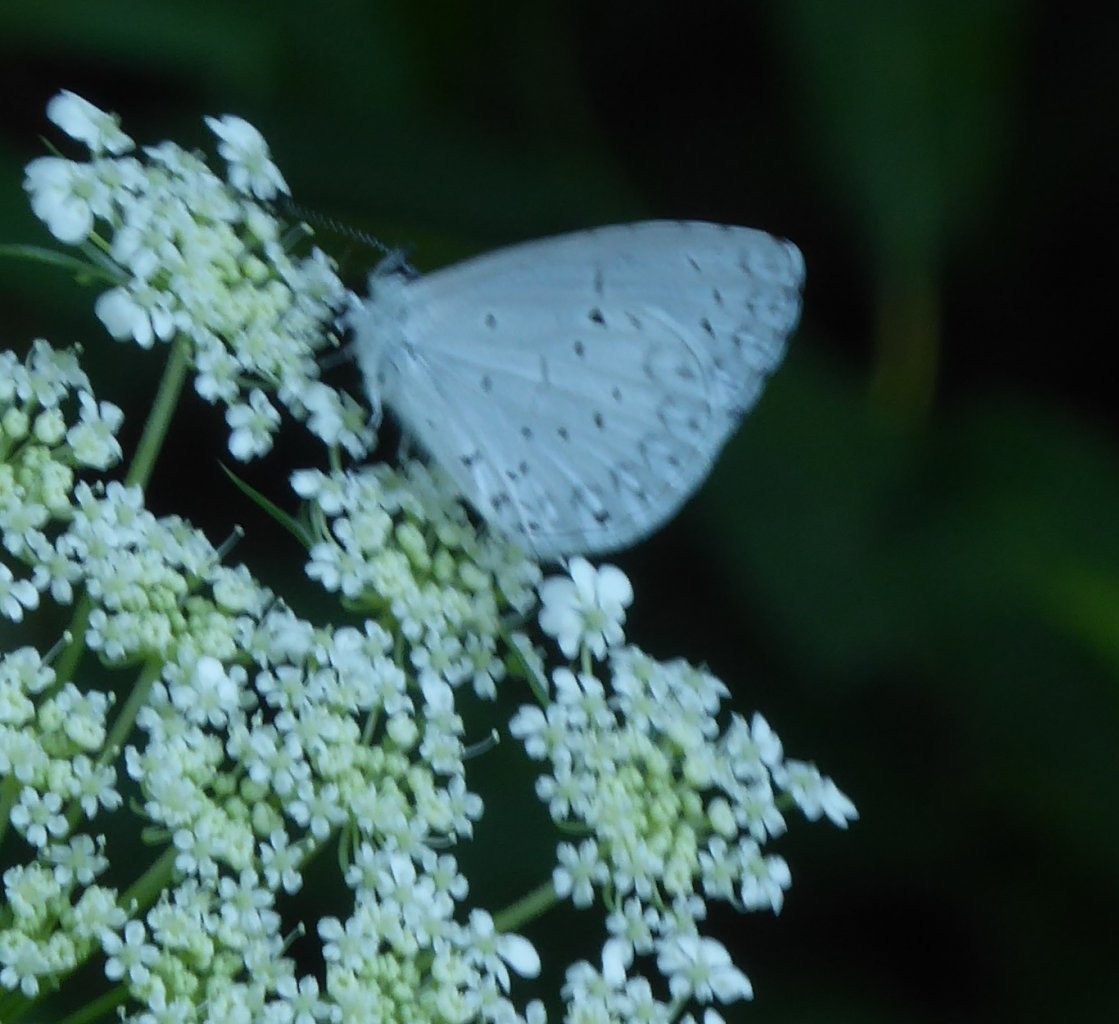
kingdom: Animalia
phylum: Arthropoda
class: Insecta
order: Lepidoptera
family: Lycaenidae
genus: Cyaniris
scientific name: Cyaniris neglecta
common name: Summer Azure
